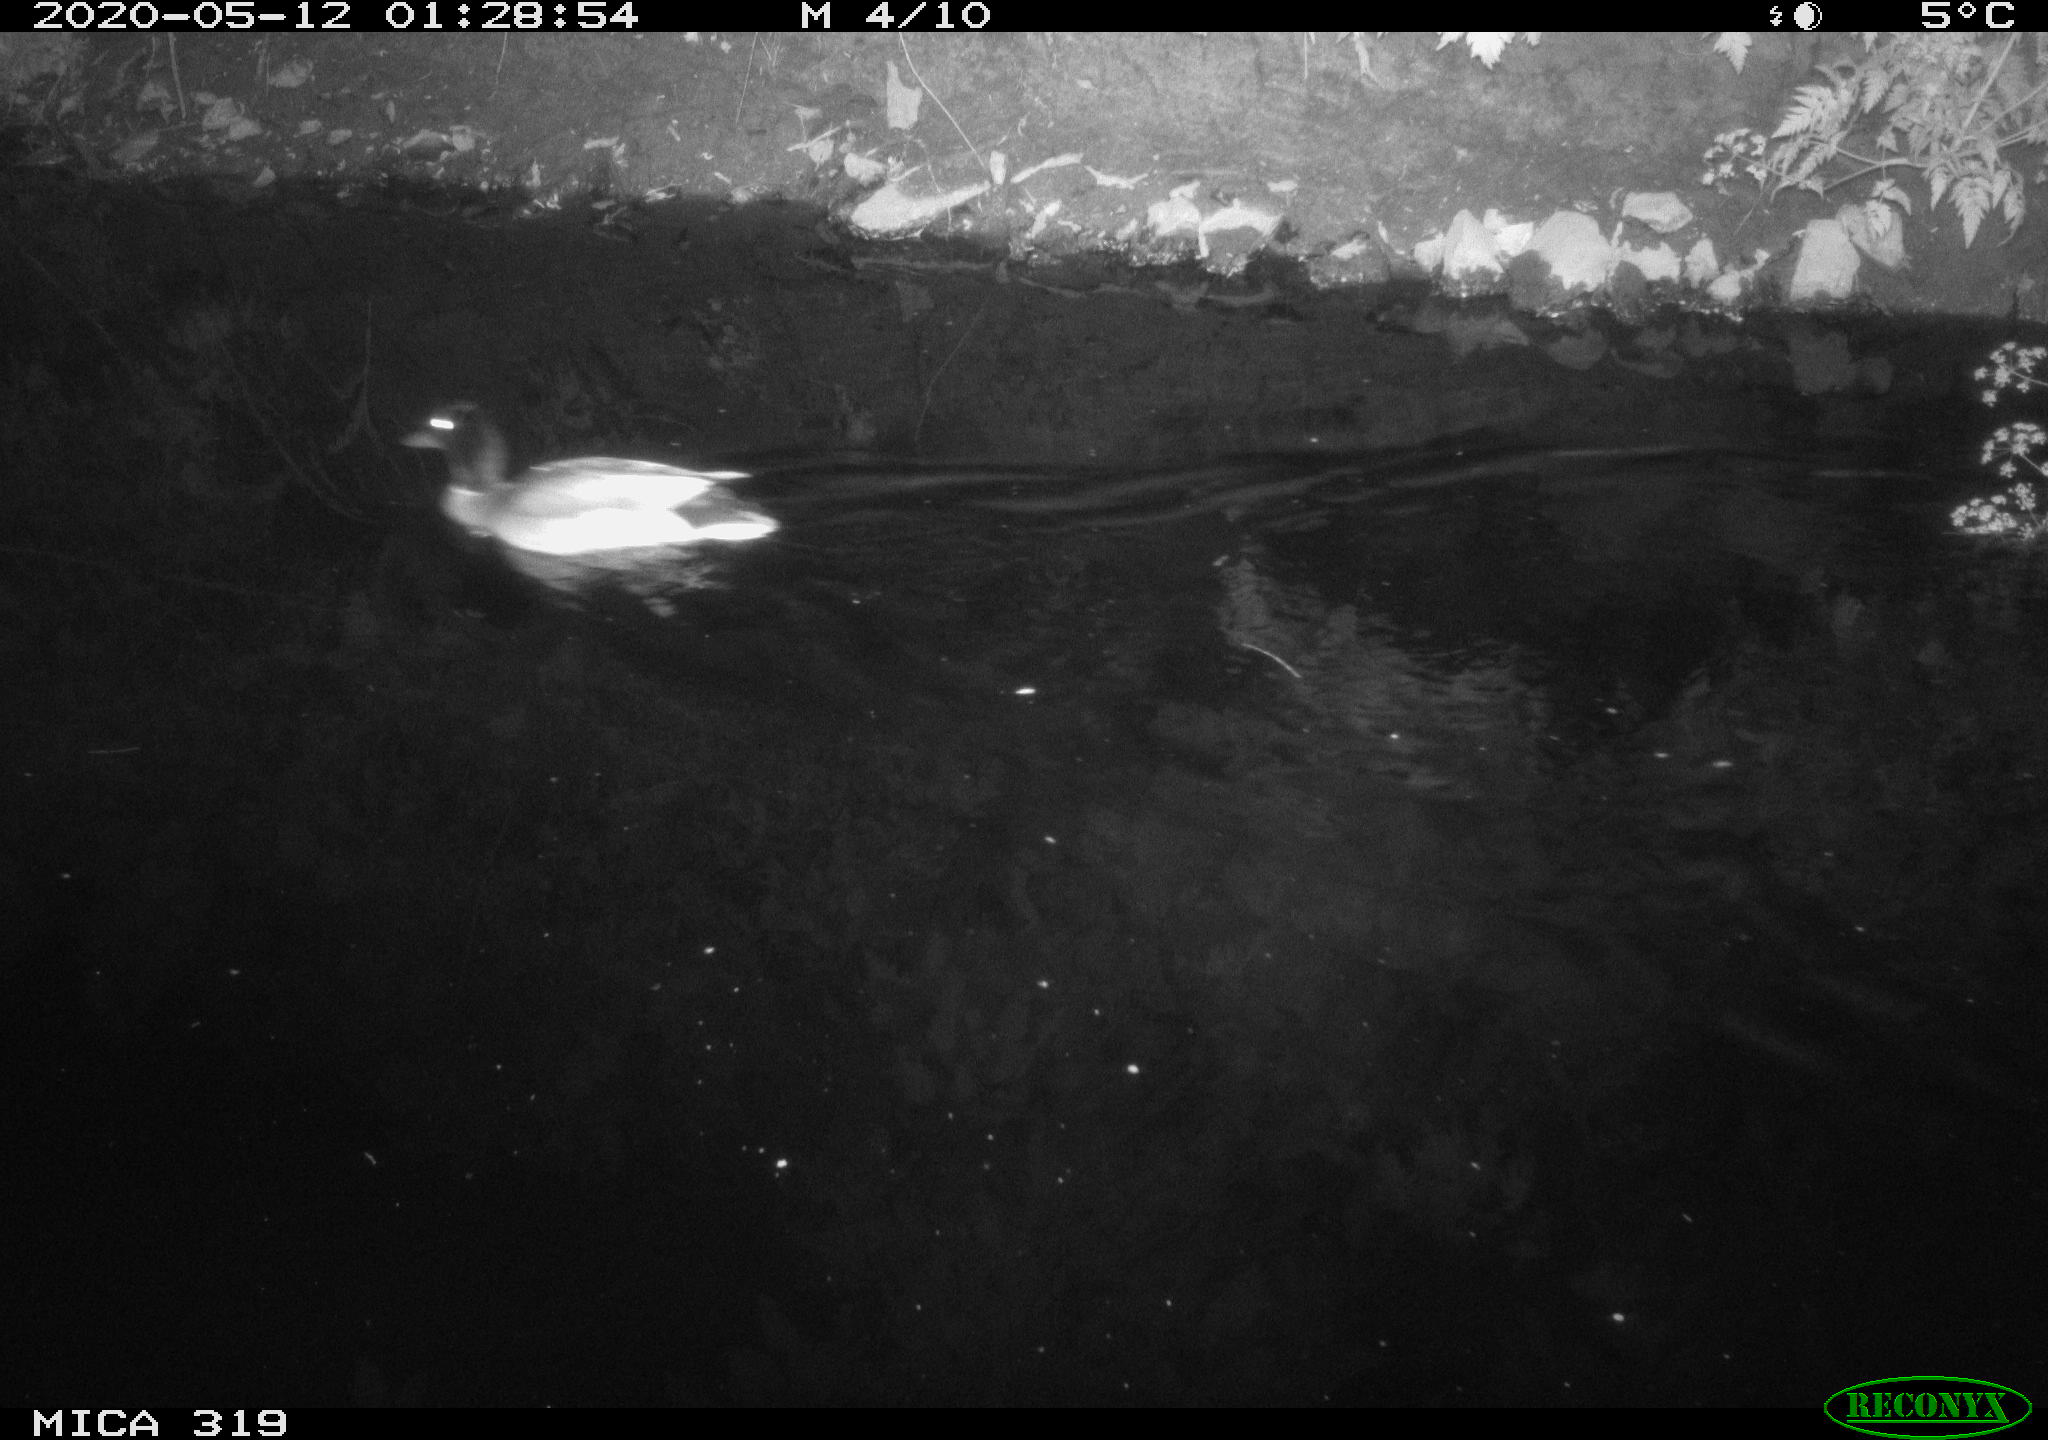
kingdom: Animalia
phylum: Chordata
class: Aves
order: Anseriformes
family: Anatidae
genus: Anas
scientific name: Anas platyrhynchos
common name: Mallard
